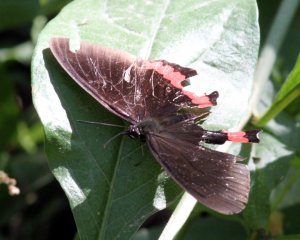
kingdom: Animalia
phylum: Arthropoda
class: Insecta
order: Lepidoptera
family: Sesiidae
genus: Sesia
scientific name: Sesia Biblis hyperia
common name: Red Rim
